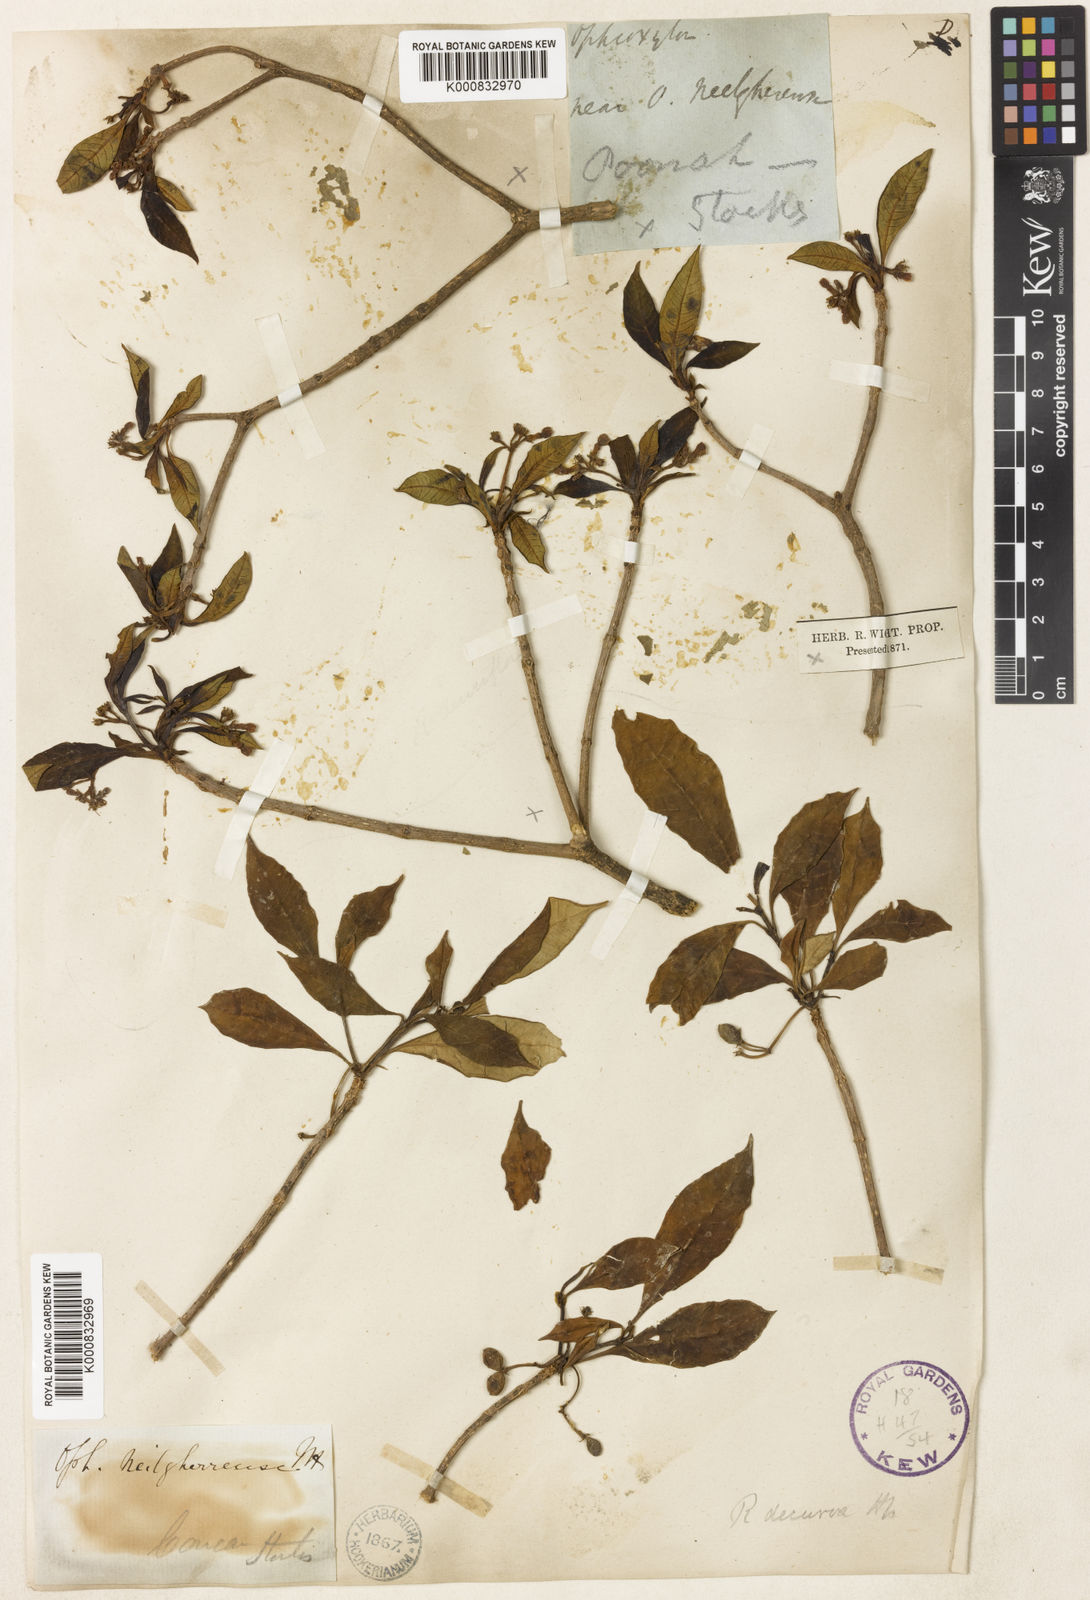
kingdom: Plantae
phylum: Tracheophyta
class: Magnoliopsida
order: Gentianales
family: Apocynaceae
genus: Rauvolfia
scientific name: Rauvolfia verticillata
